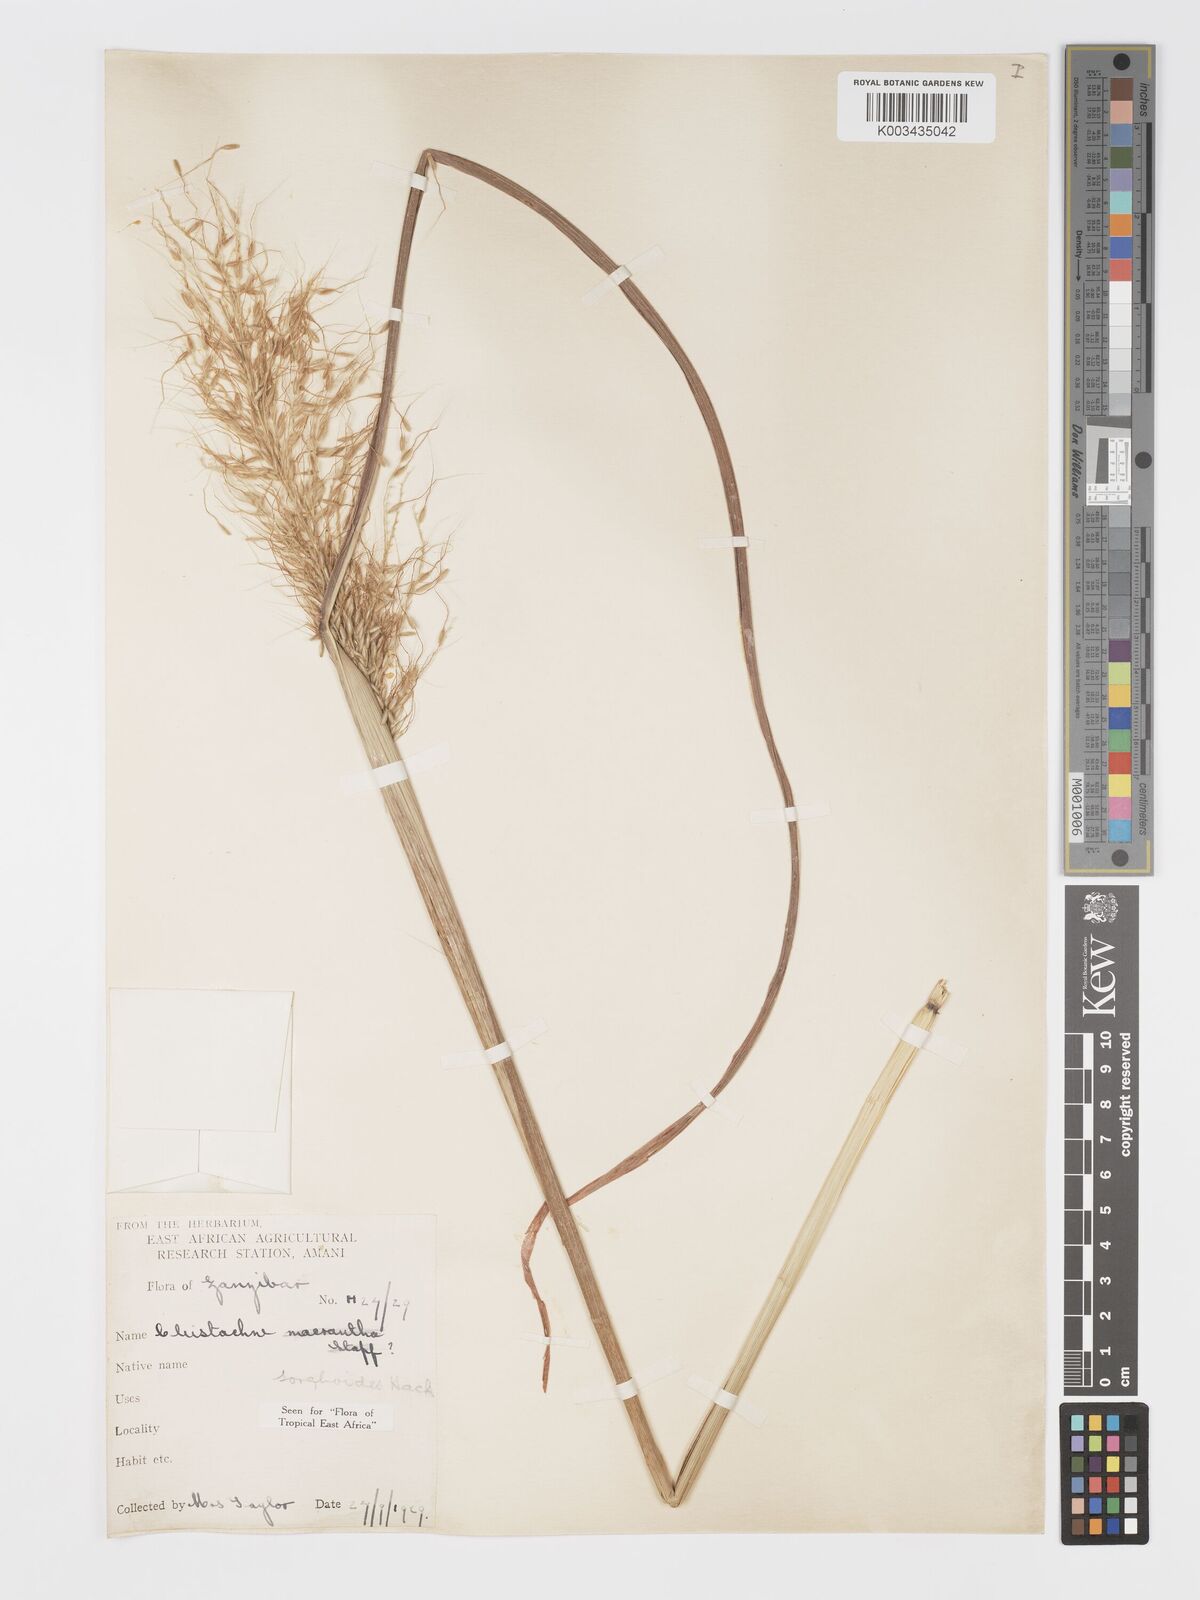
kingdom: Plantae
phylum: Tracheophyta
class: Liliopsida
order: Poales
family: Poaceae
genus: Cleistachne
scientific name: Cleistachne sorghoides
